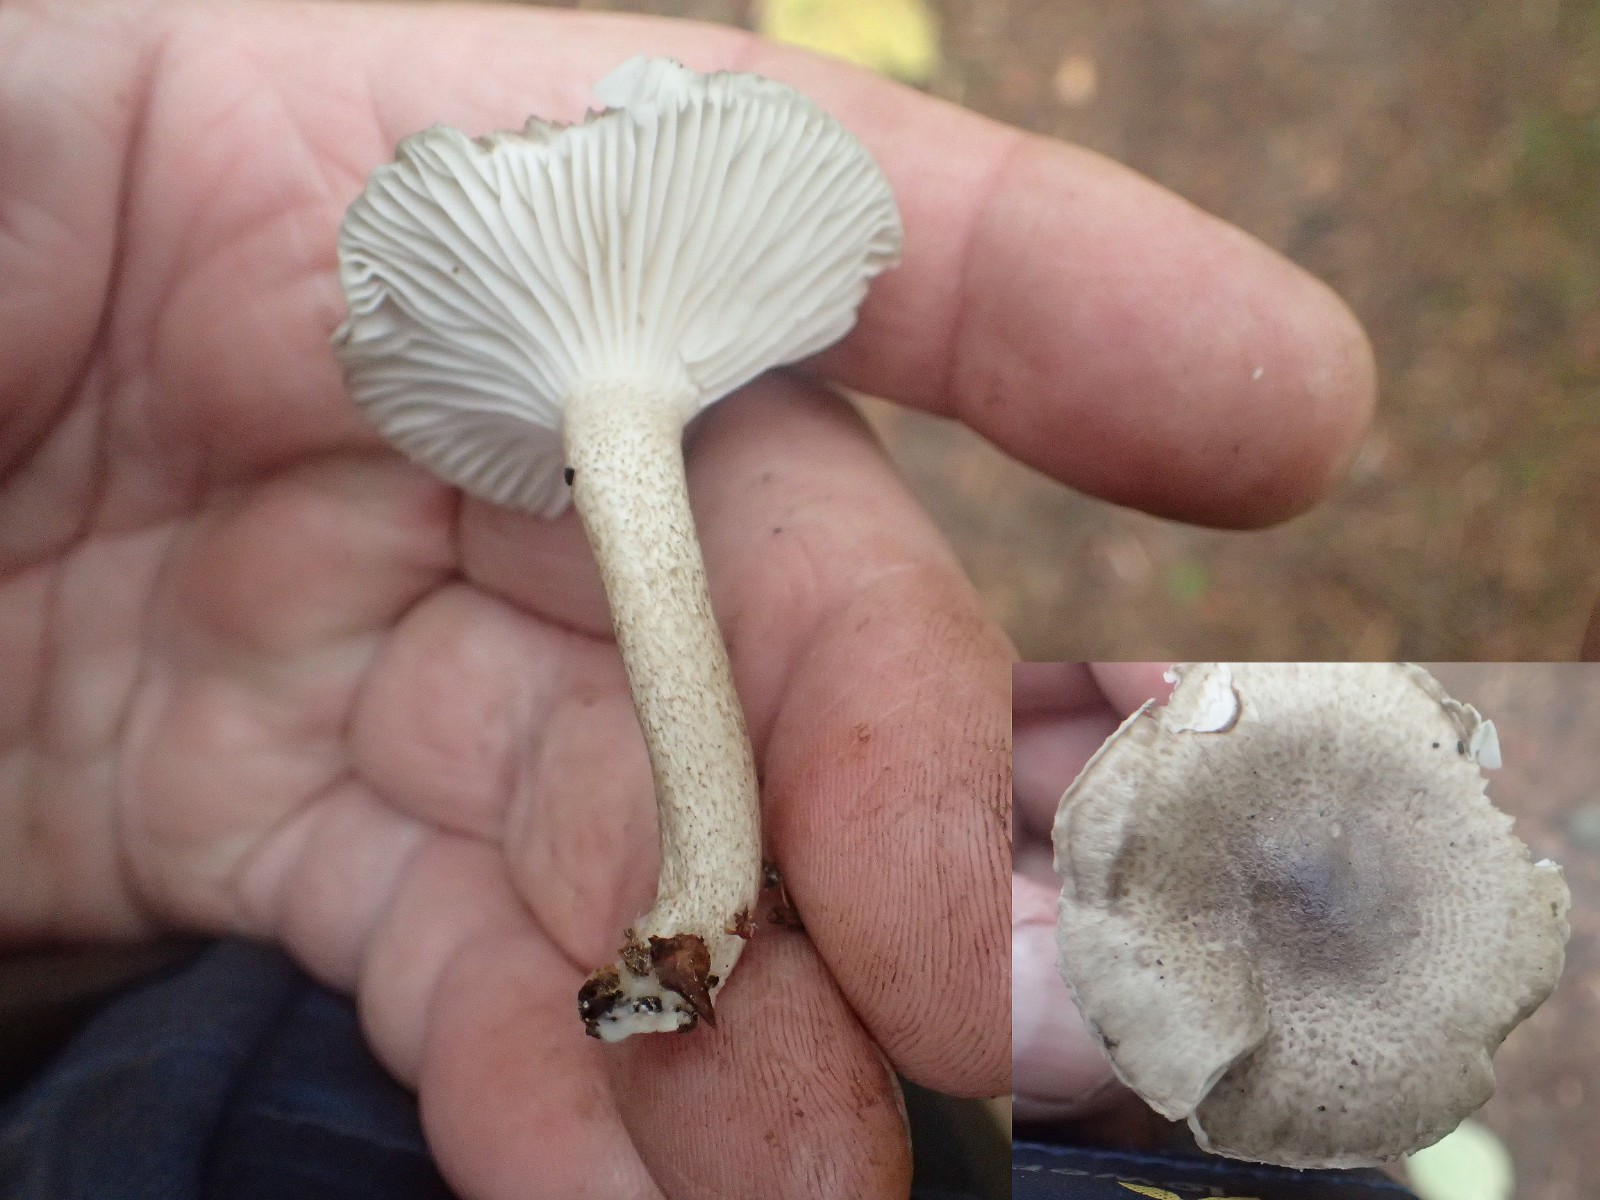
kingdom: Fungi
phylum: Basidiomycota
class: Agaricomycetes
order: Agaricales
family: Hygrophoraceae
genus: Hygrophorus
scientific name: Hygrophorus pustulatus
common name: mørkprikket sneglehat
